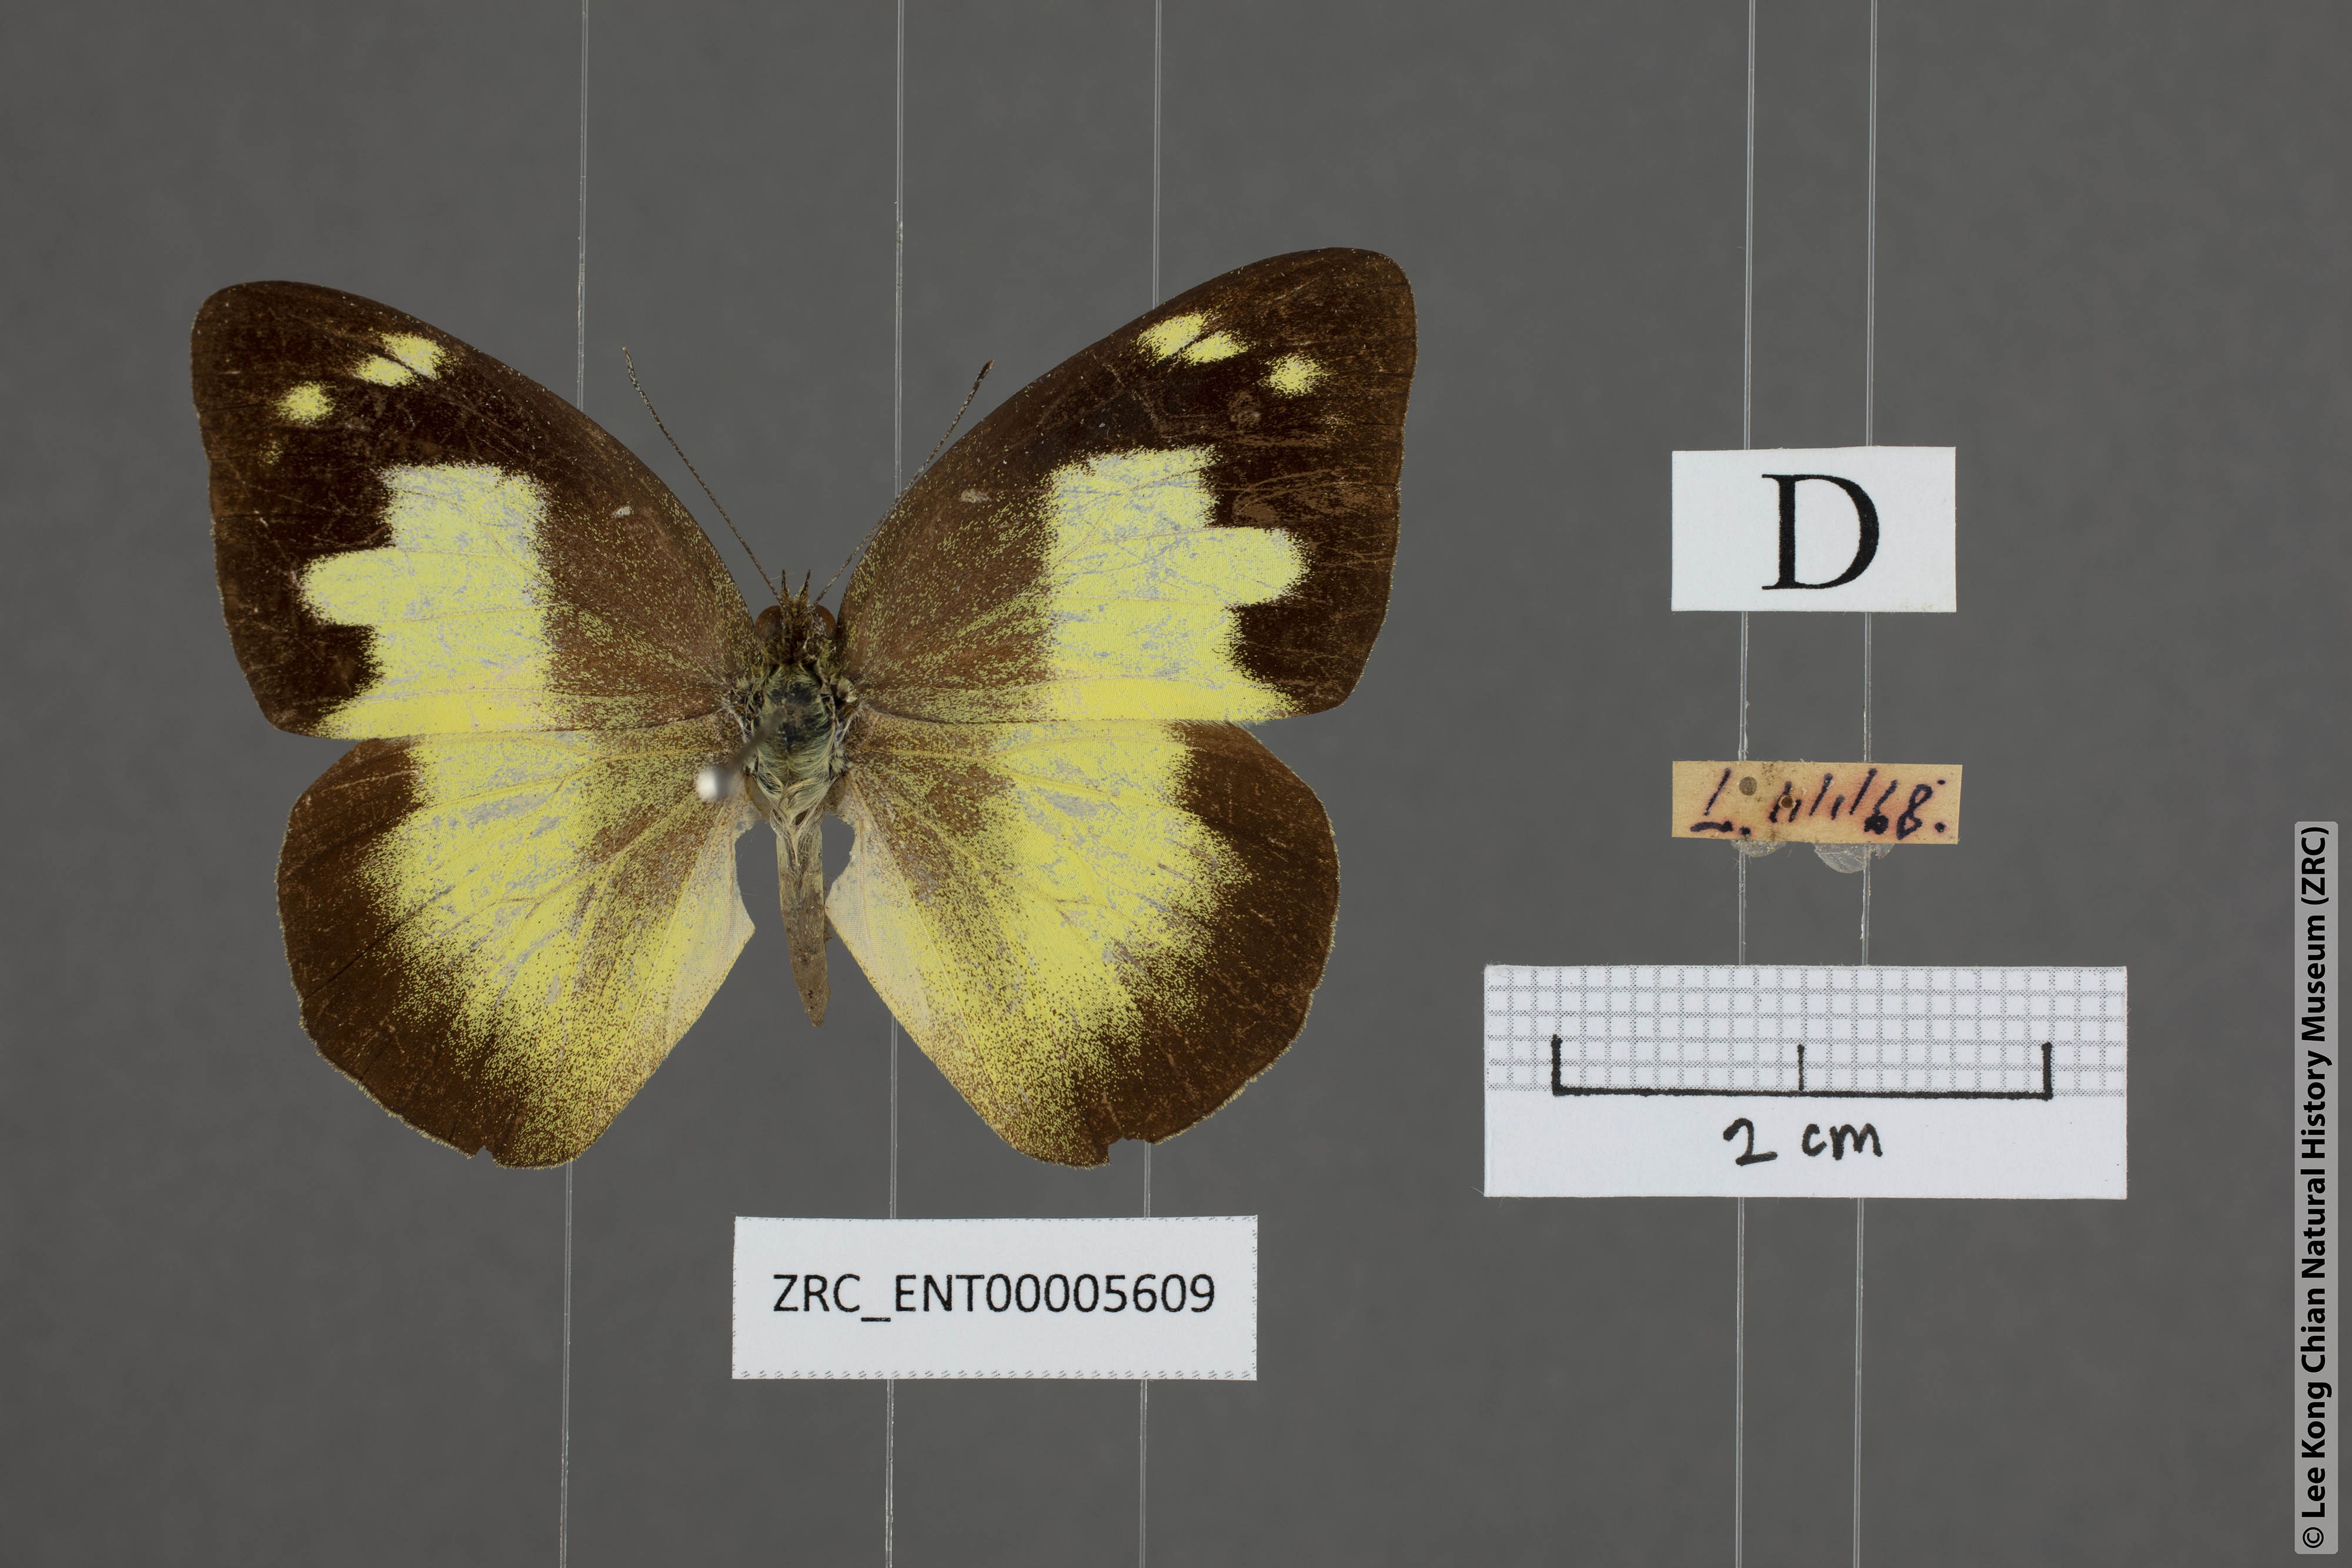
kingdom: Animalia
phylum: Arthropoda
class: Insecta
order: Lepidoptera
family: Pieridae
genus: Appias
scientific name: Appias paulina
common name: Ceylon lesser albatross
